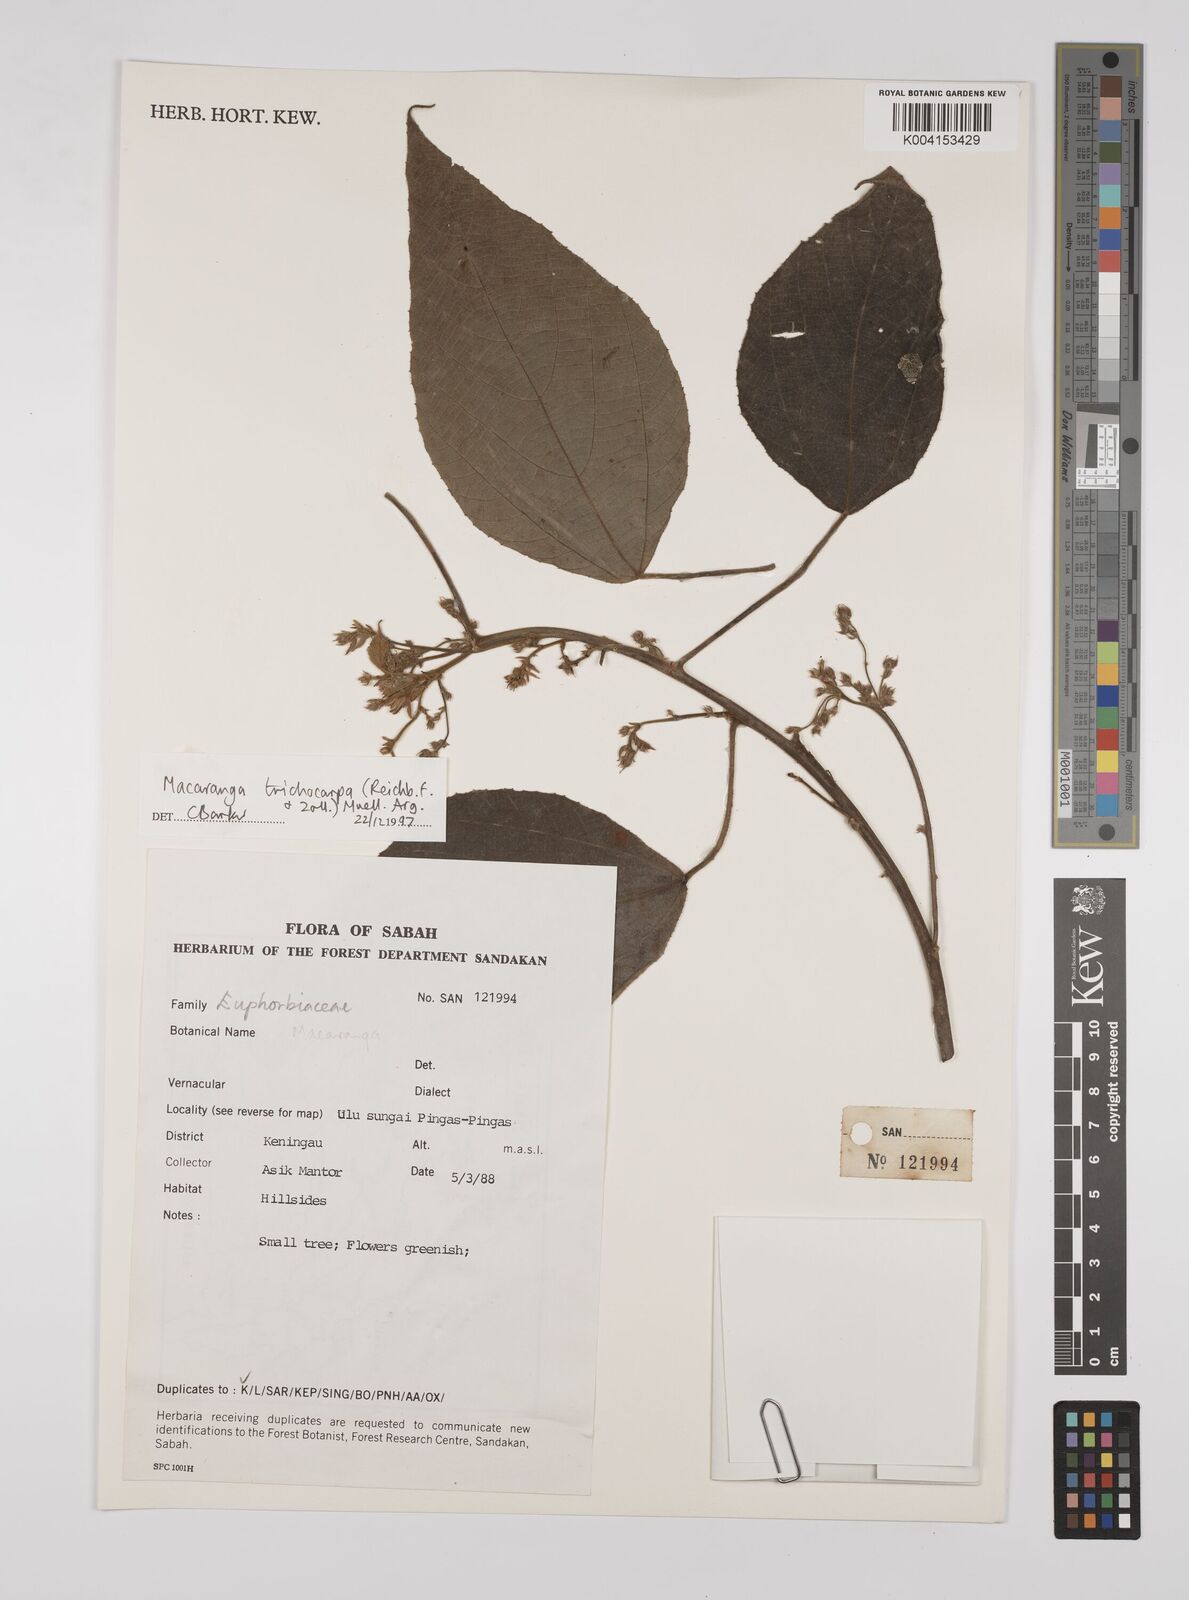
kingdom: Plantae
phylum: Tracheophyta
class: Magnoliopsida
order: Malpighiales
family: Euphorbiaceae
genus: Macaranga
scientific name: Macaranga trichocarpa
